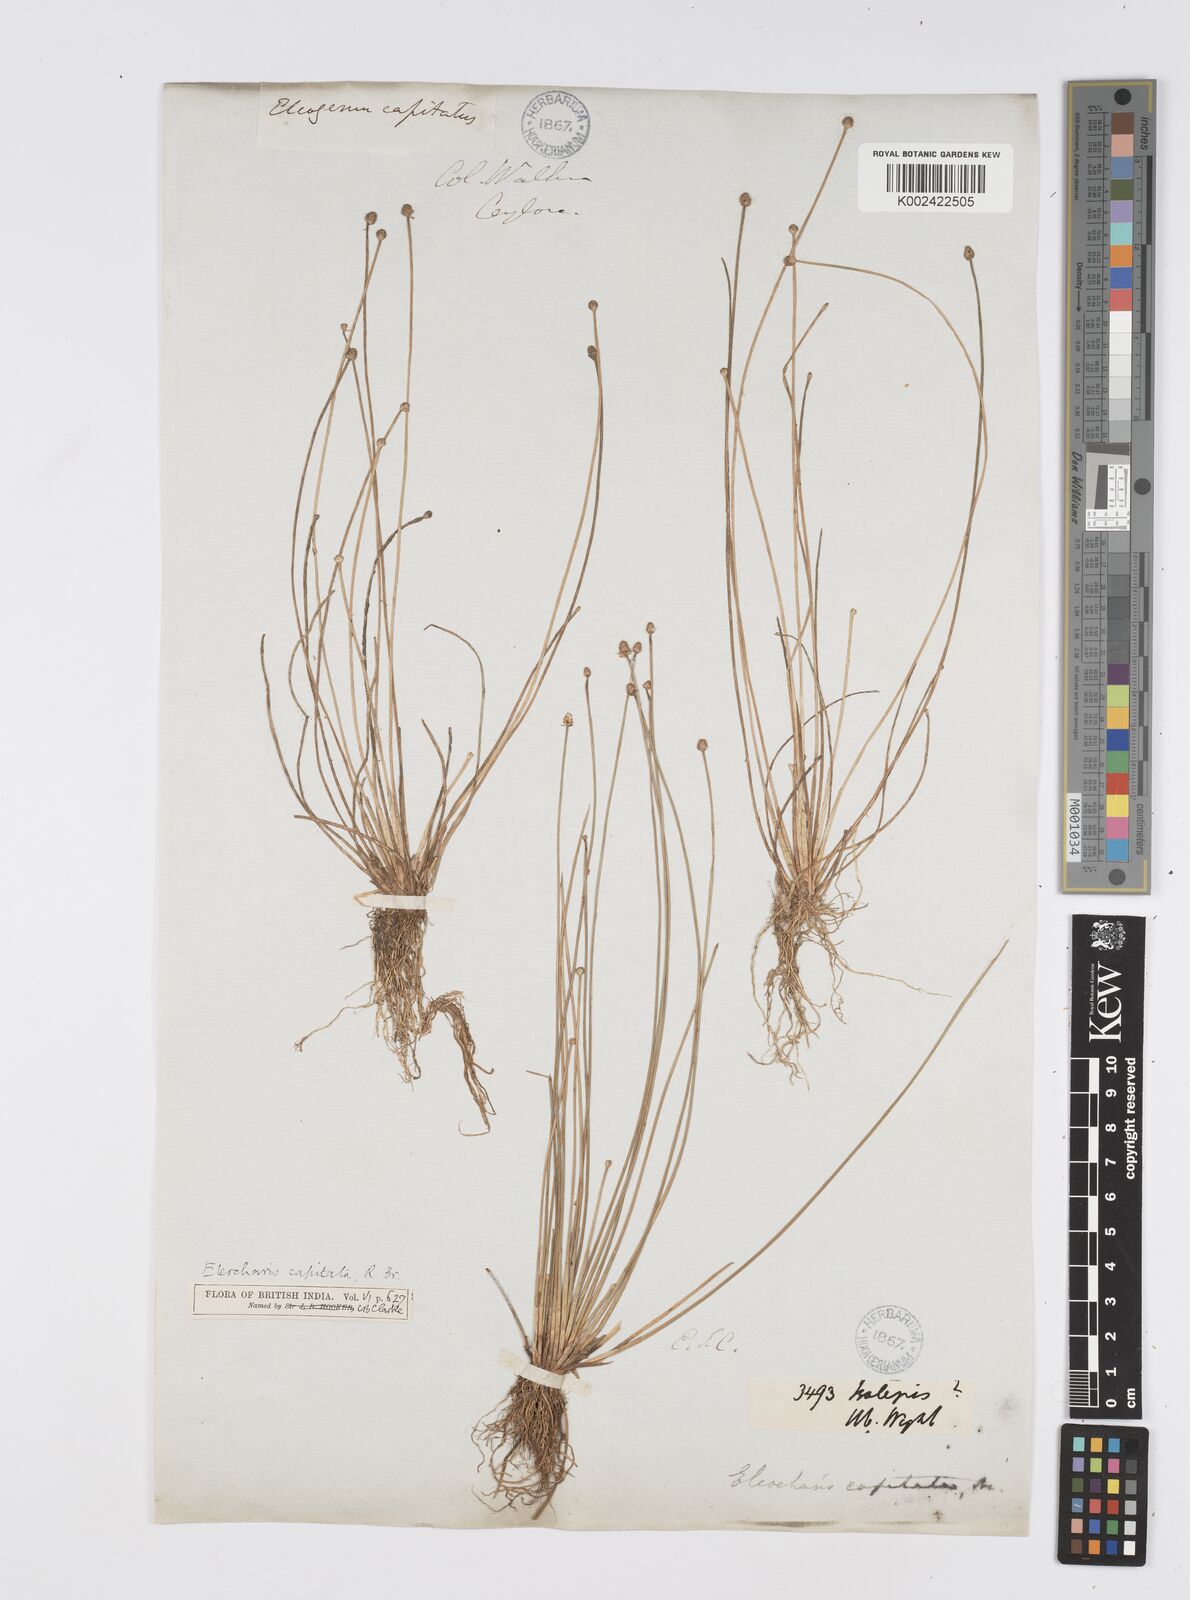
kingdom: Plantae
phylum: Tracheophyta
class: Liliopsida
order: Poales
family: Cyperaceae
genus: Eleocharis
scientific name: Eleocharis geniculata
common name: Canada spikesedge
